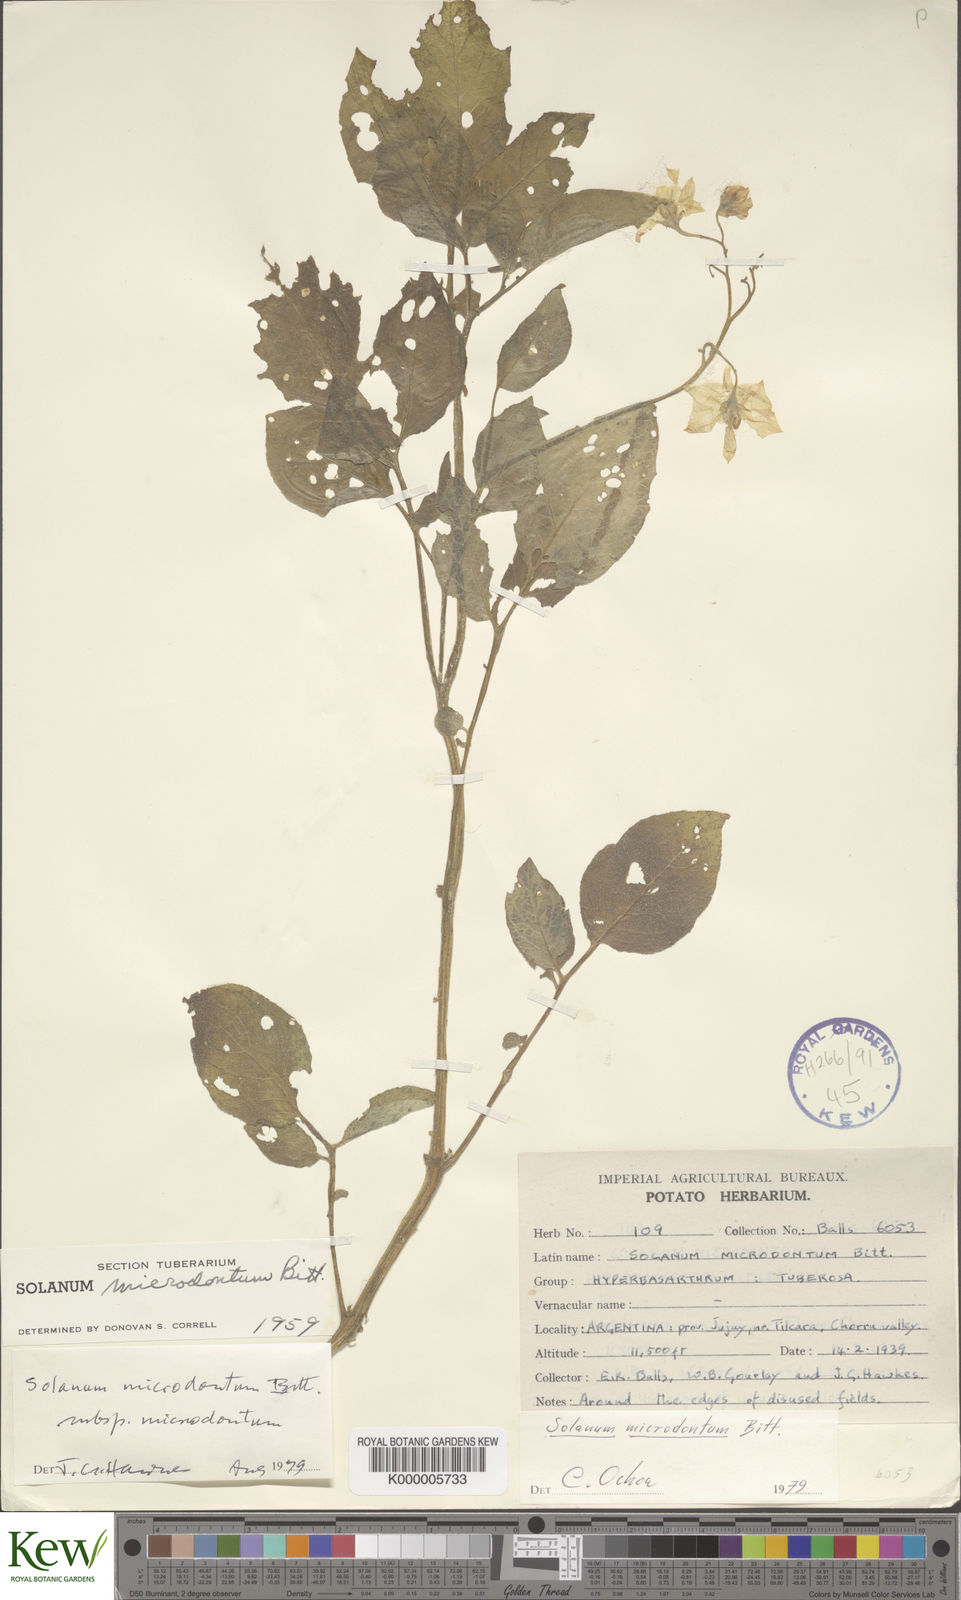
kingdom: Plantae
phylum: Tracheophyta
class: Magnoliopsida
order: Solanales
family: Solanaceae
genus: Solanum
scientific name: Solanum microdontum
